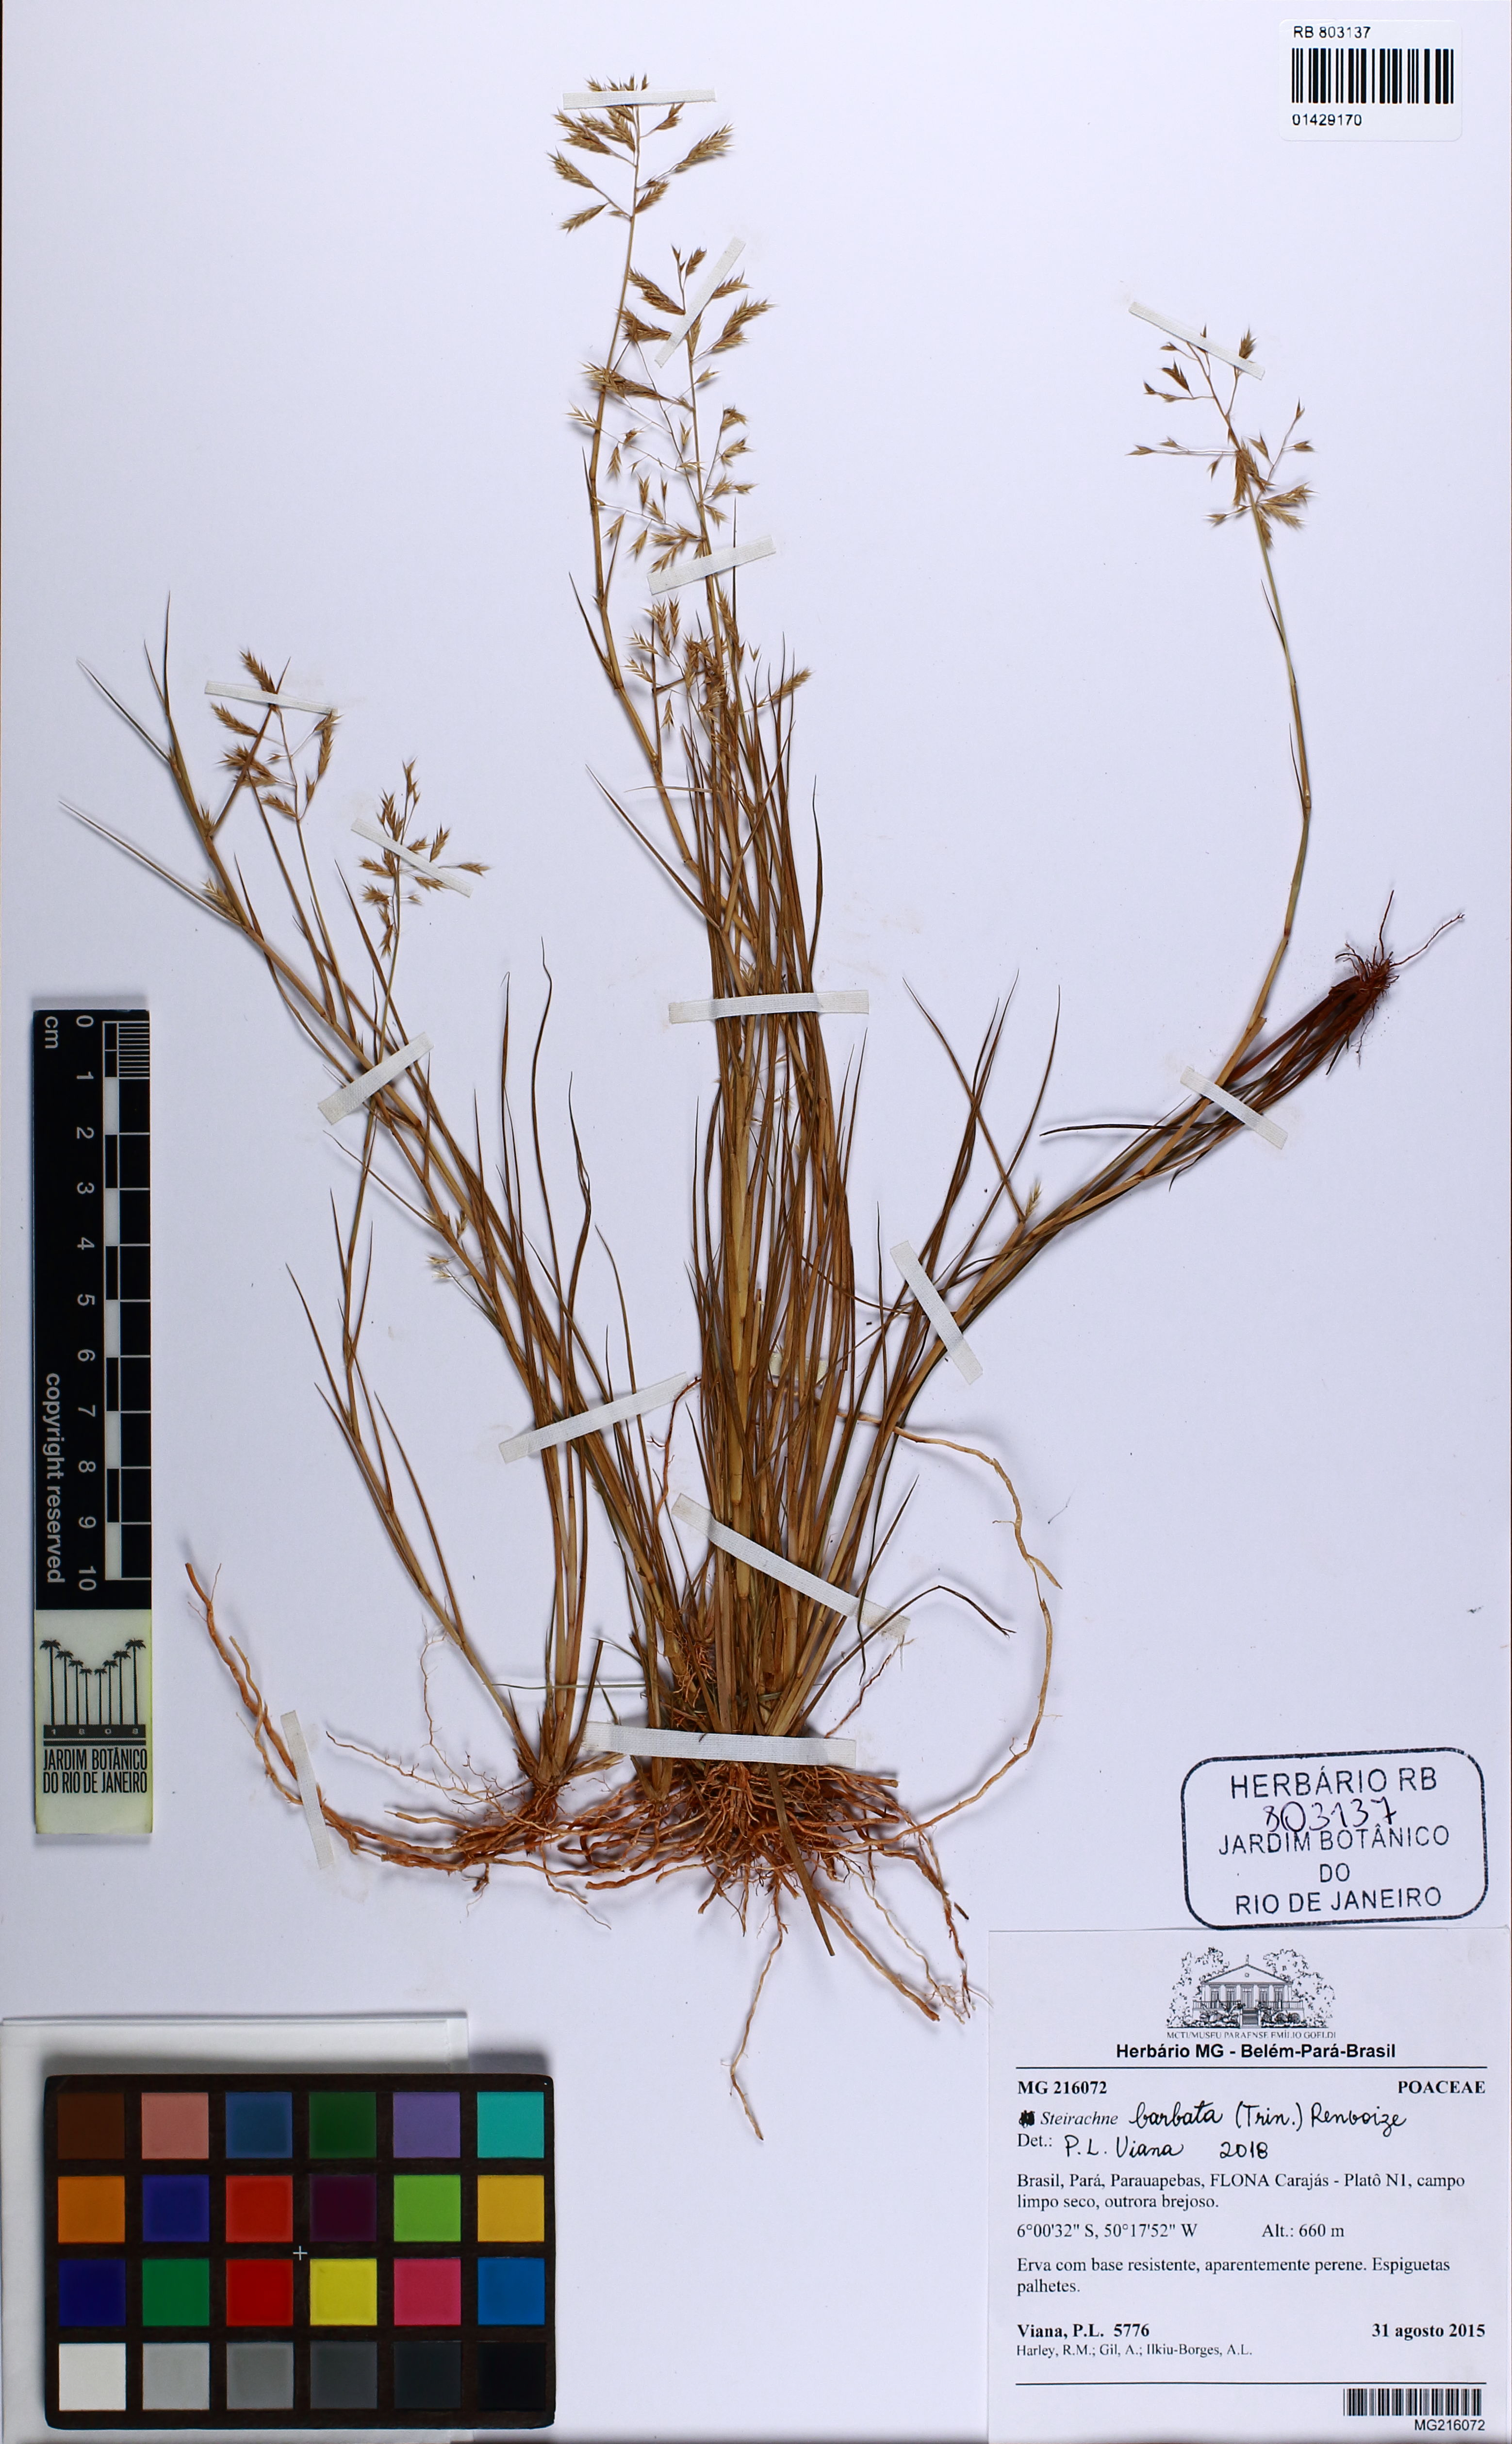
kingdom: Plantae
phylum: Tracheophyta
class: Liliopsida
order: Poales
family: Poaceae
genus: Steirachne
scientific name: Steirachne barbata
